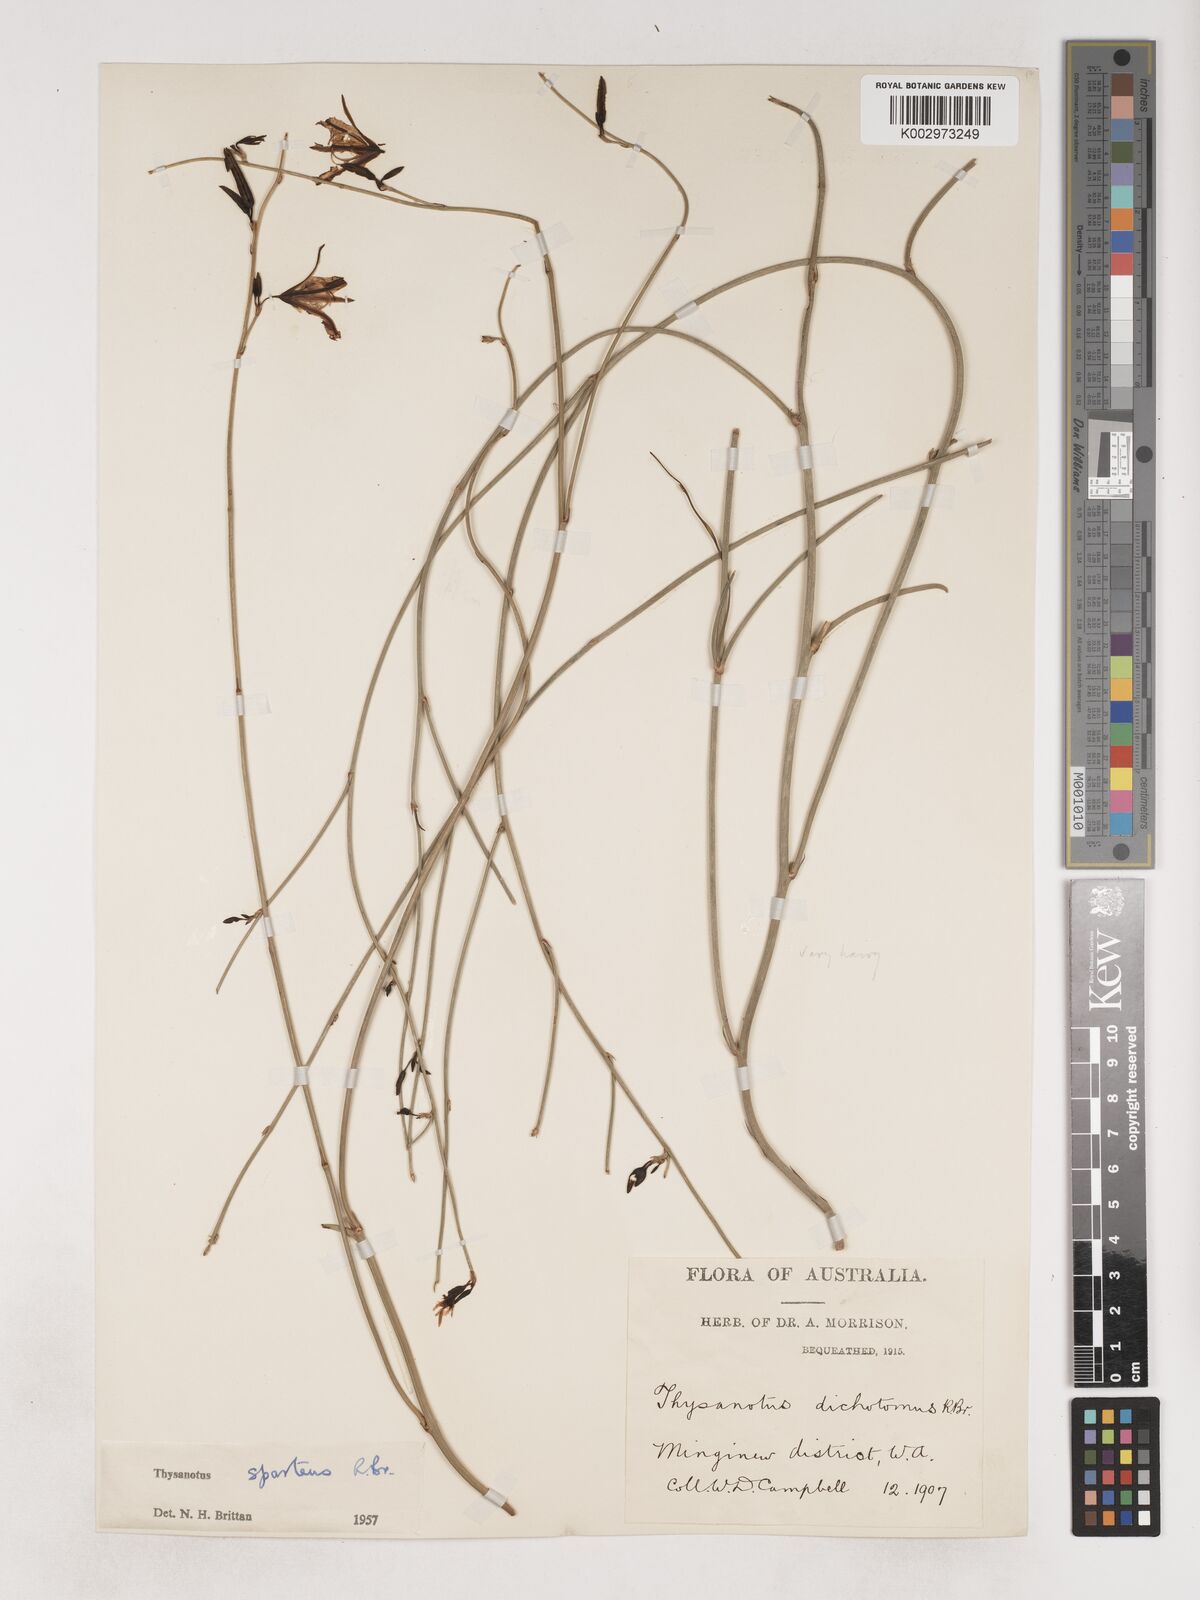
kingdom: Plantae
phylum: Tracheophyta
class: Liliopsida
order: Asparagales
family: Asparagaceae
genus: Thysanotus
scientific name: Thysanotus sparteus
